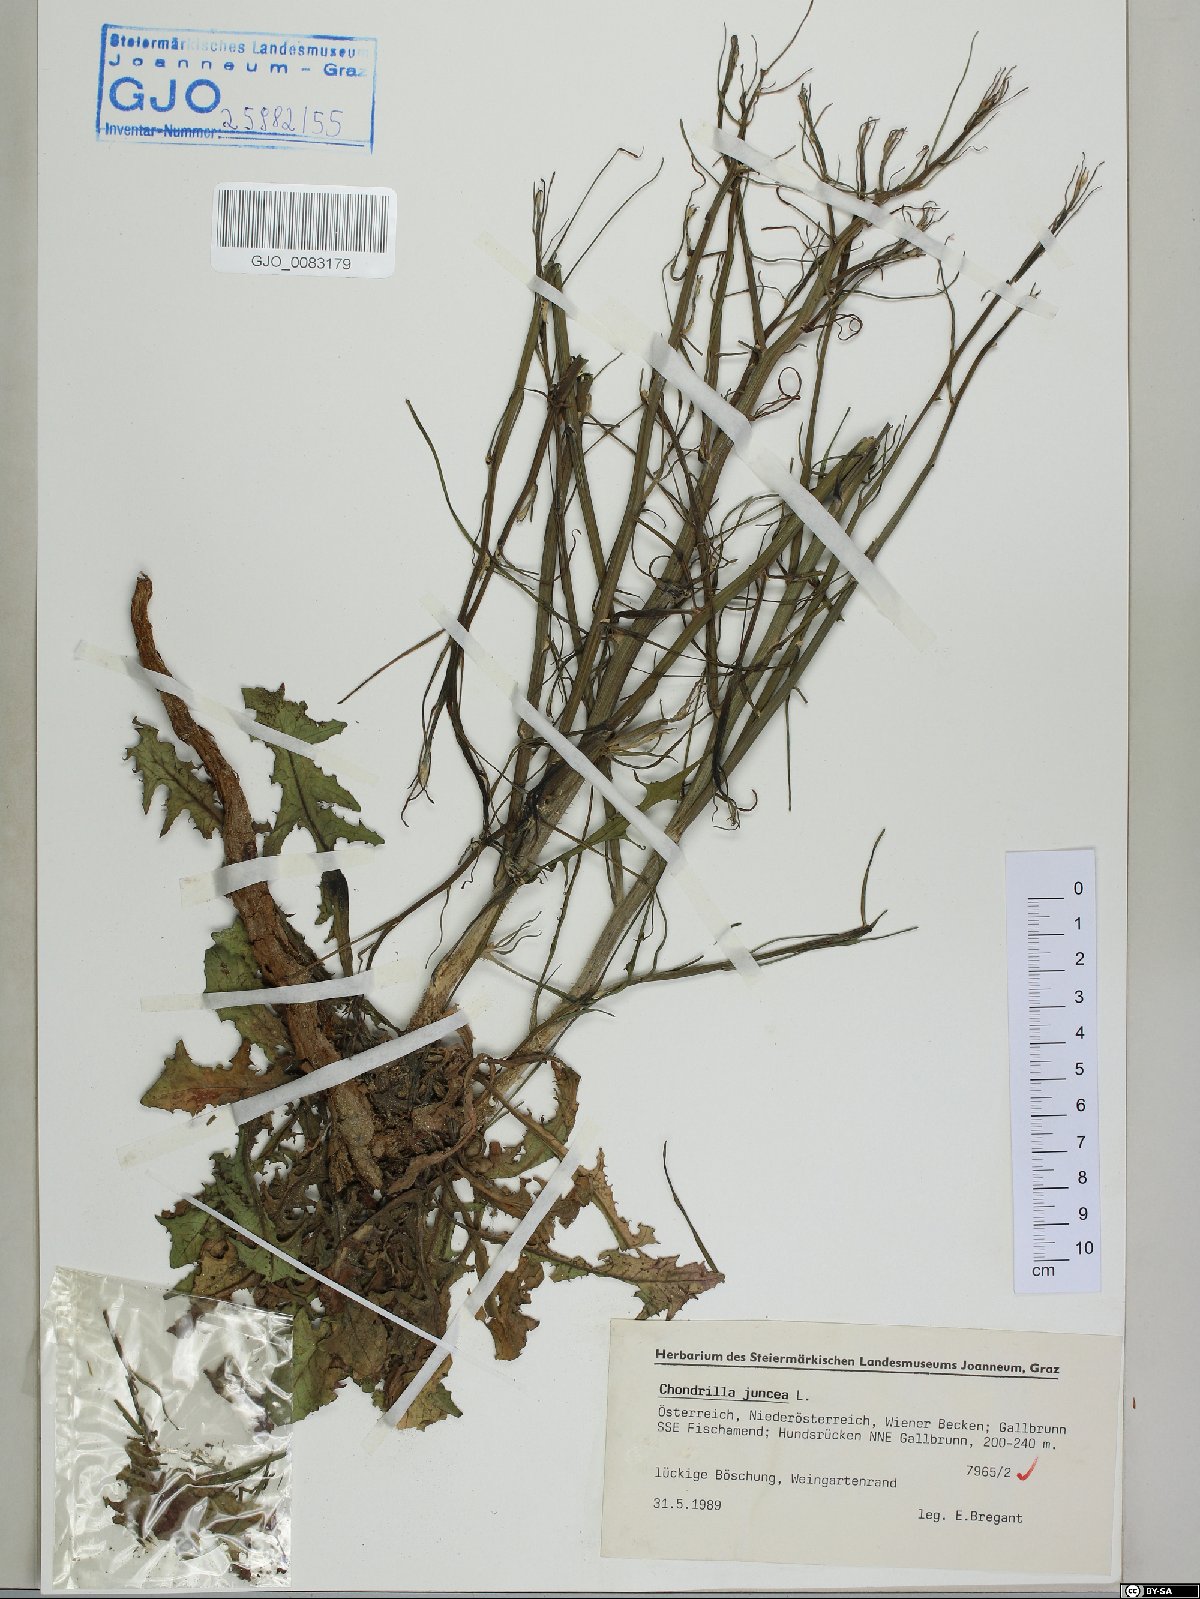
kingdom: Plantae
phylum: Tracheophyta
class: Magnoliopsida
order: Asterales
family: Asteraceae
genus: Chondrilla
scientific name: Chondrilla juncea
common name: Skeleton weed
